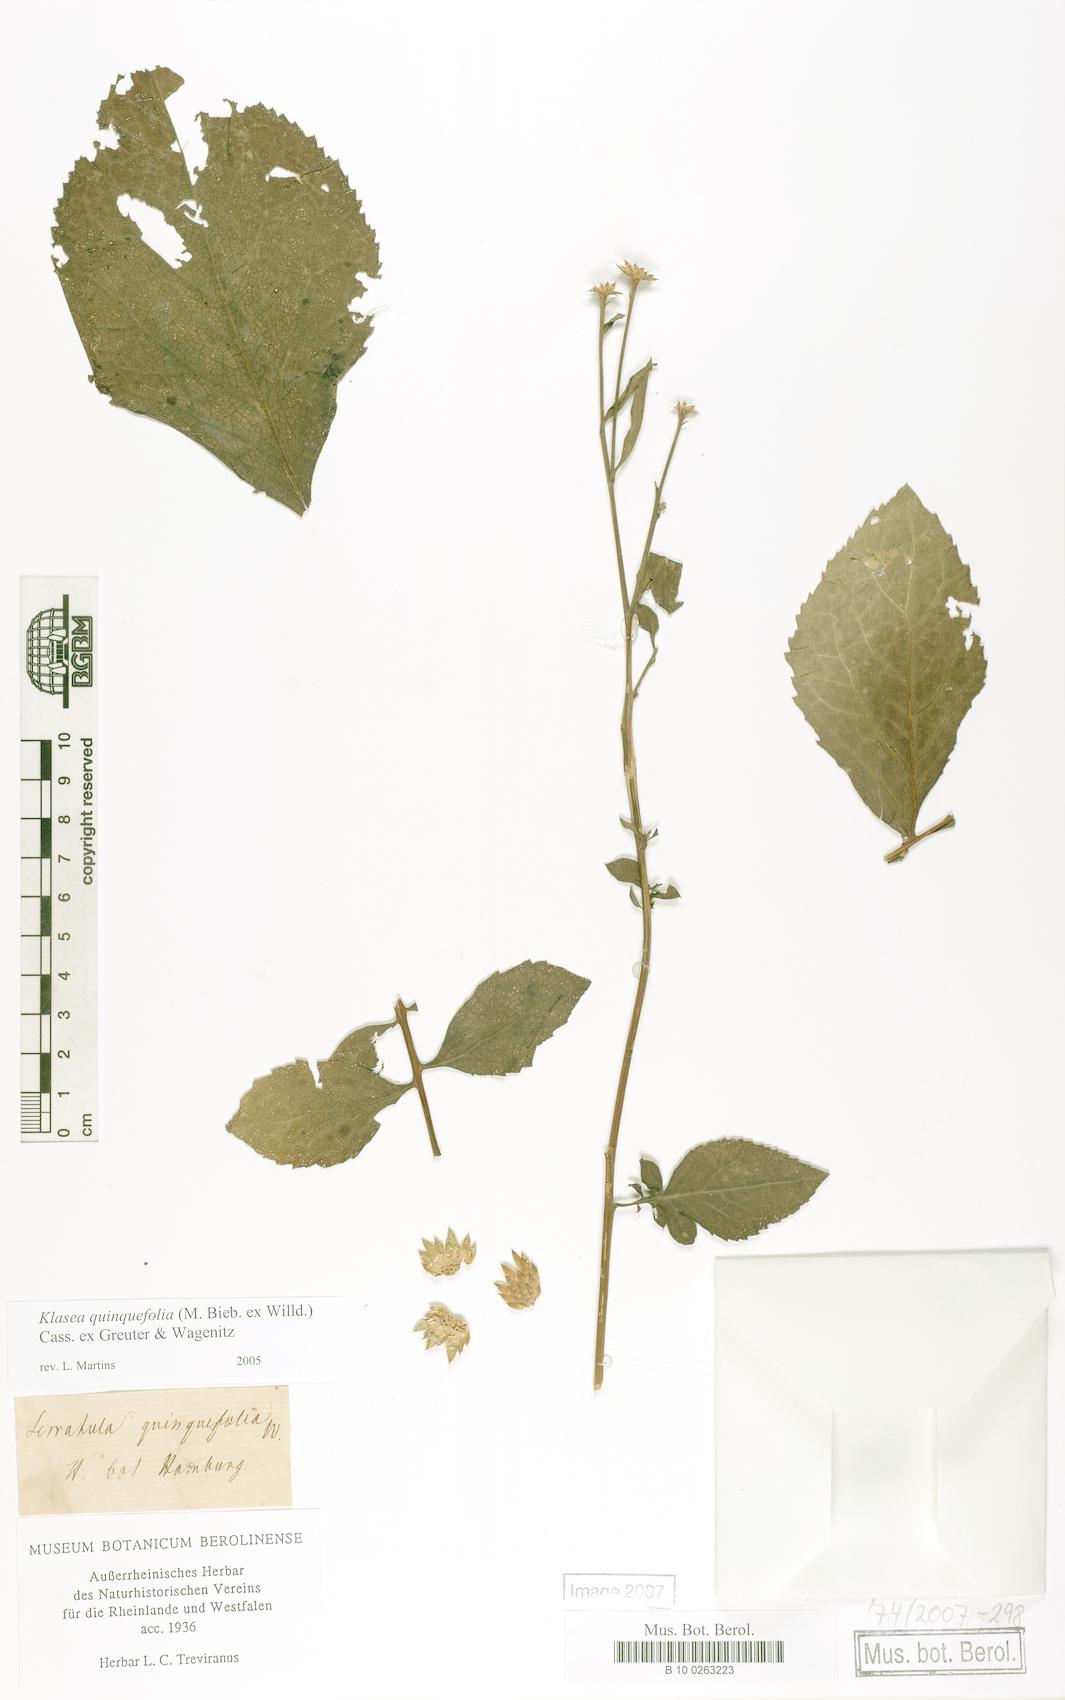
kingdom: Plantae
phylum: Tracheophyta
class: Magnoliopsida
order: Asterales
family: Asteraceae
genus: Klasea
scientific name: Klasea quinquefolia
